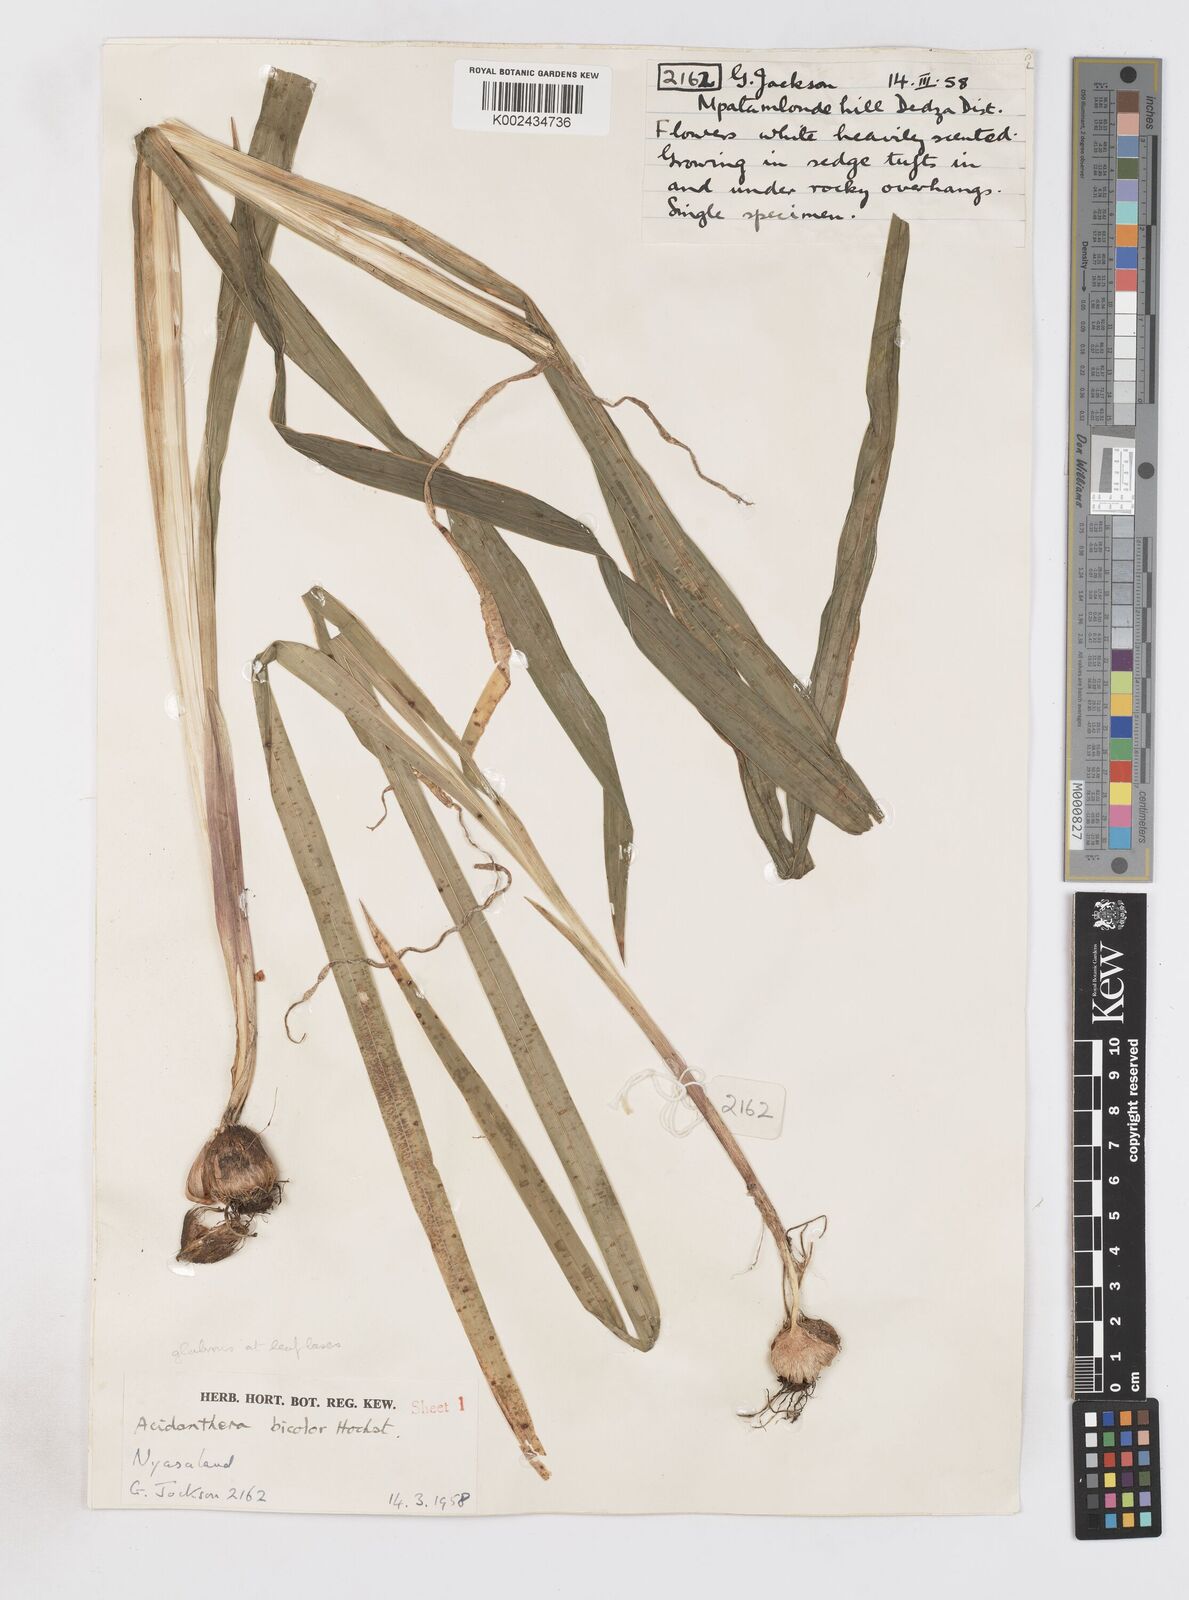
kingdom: Plantae
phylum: Tracheophyta
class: Liliopsida
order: Asparagales
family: Iridaceae
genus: Gladiolus
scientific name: Gladiolus murielae
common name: Acidanthera
